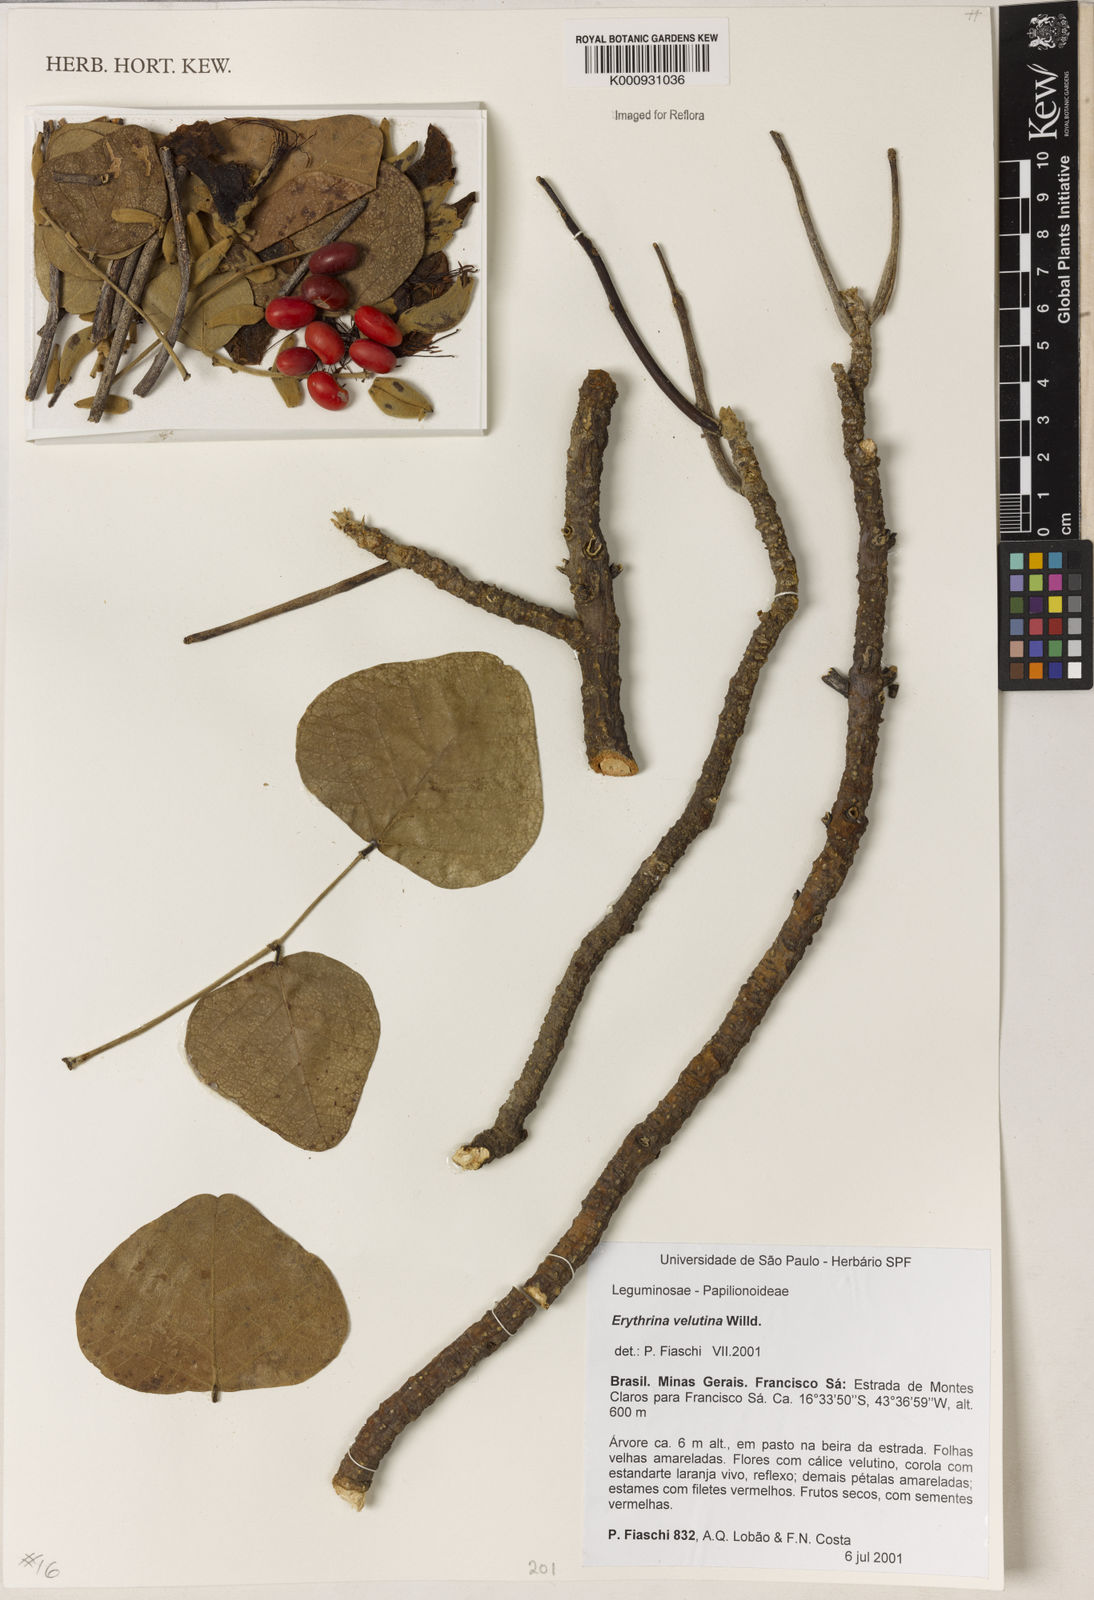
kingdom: Plantae
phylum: Tracheophyta
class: Magnoliopsida
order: Fabales
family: Fabaceae
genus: Erythrina
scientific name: Erythrina velutina
